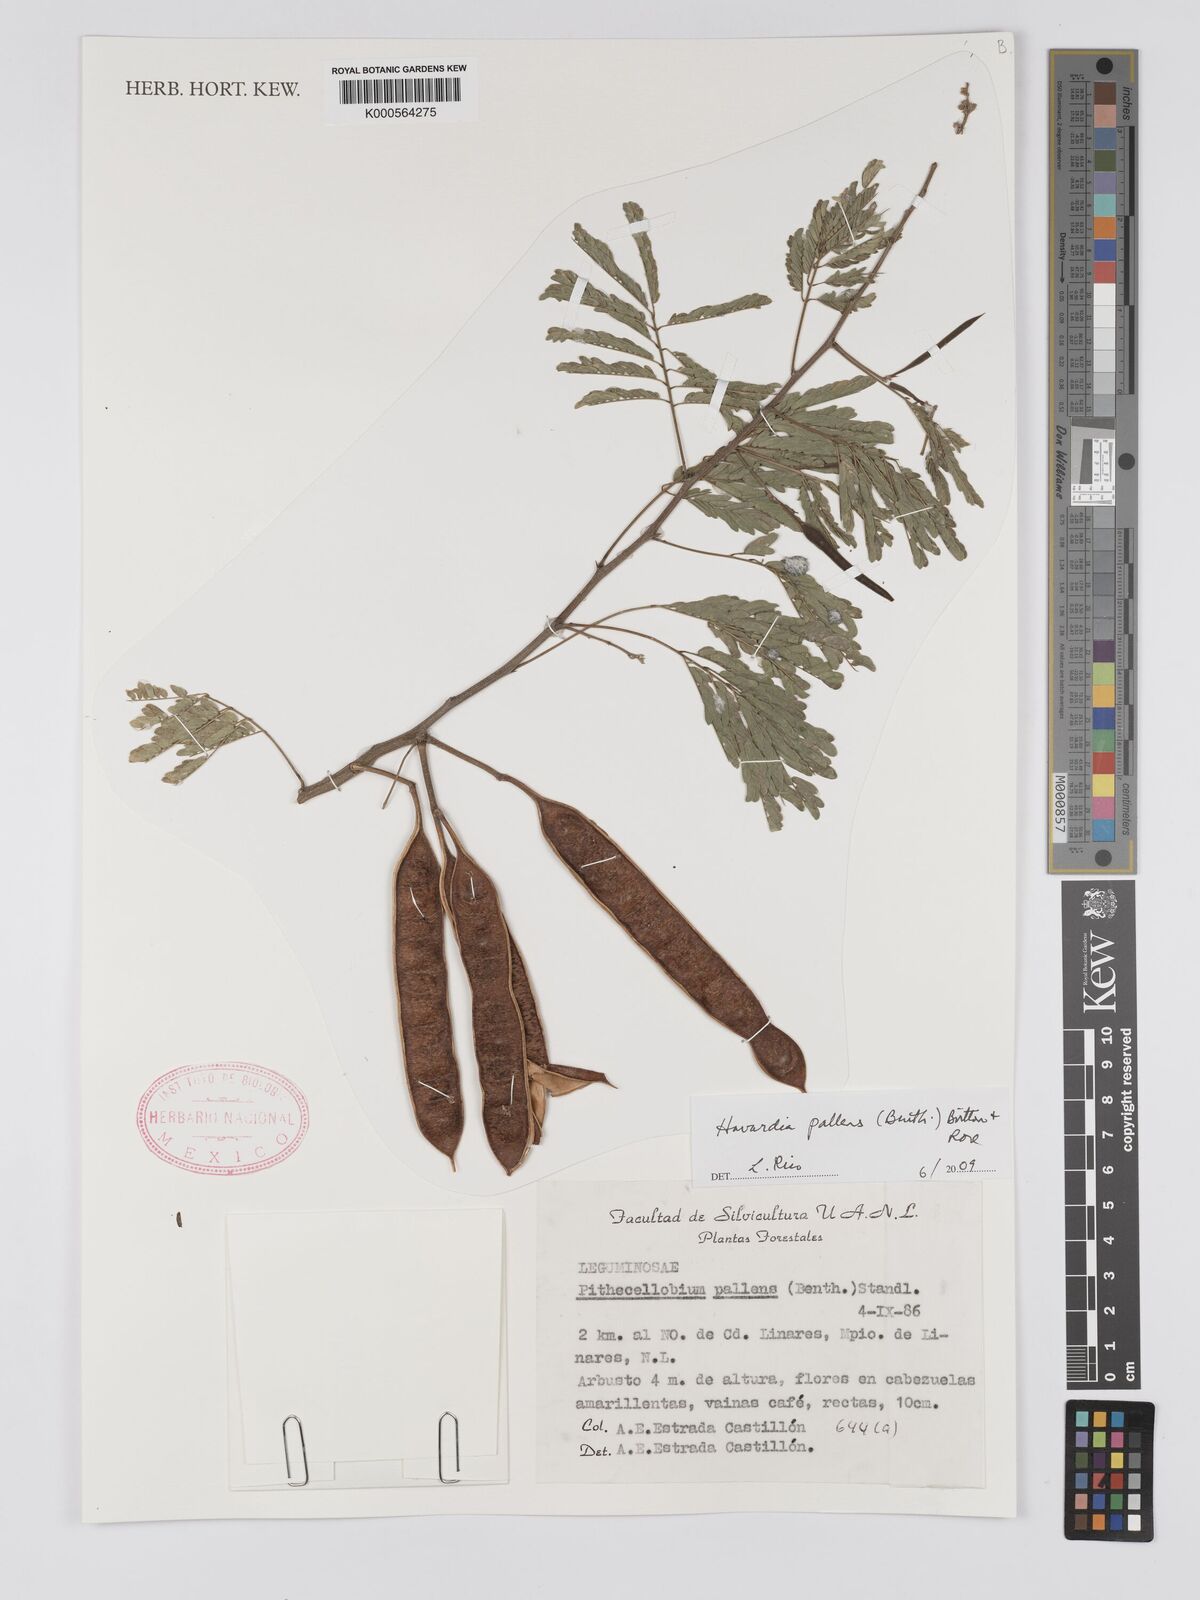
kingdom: Plantae
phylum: Tracheophyta
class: Magnoliopsida
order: Fabales
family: Fabaceae
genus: Havardia
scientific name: Havardia pallens
